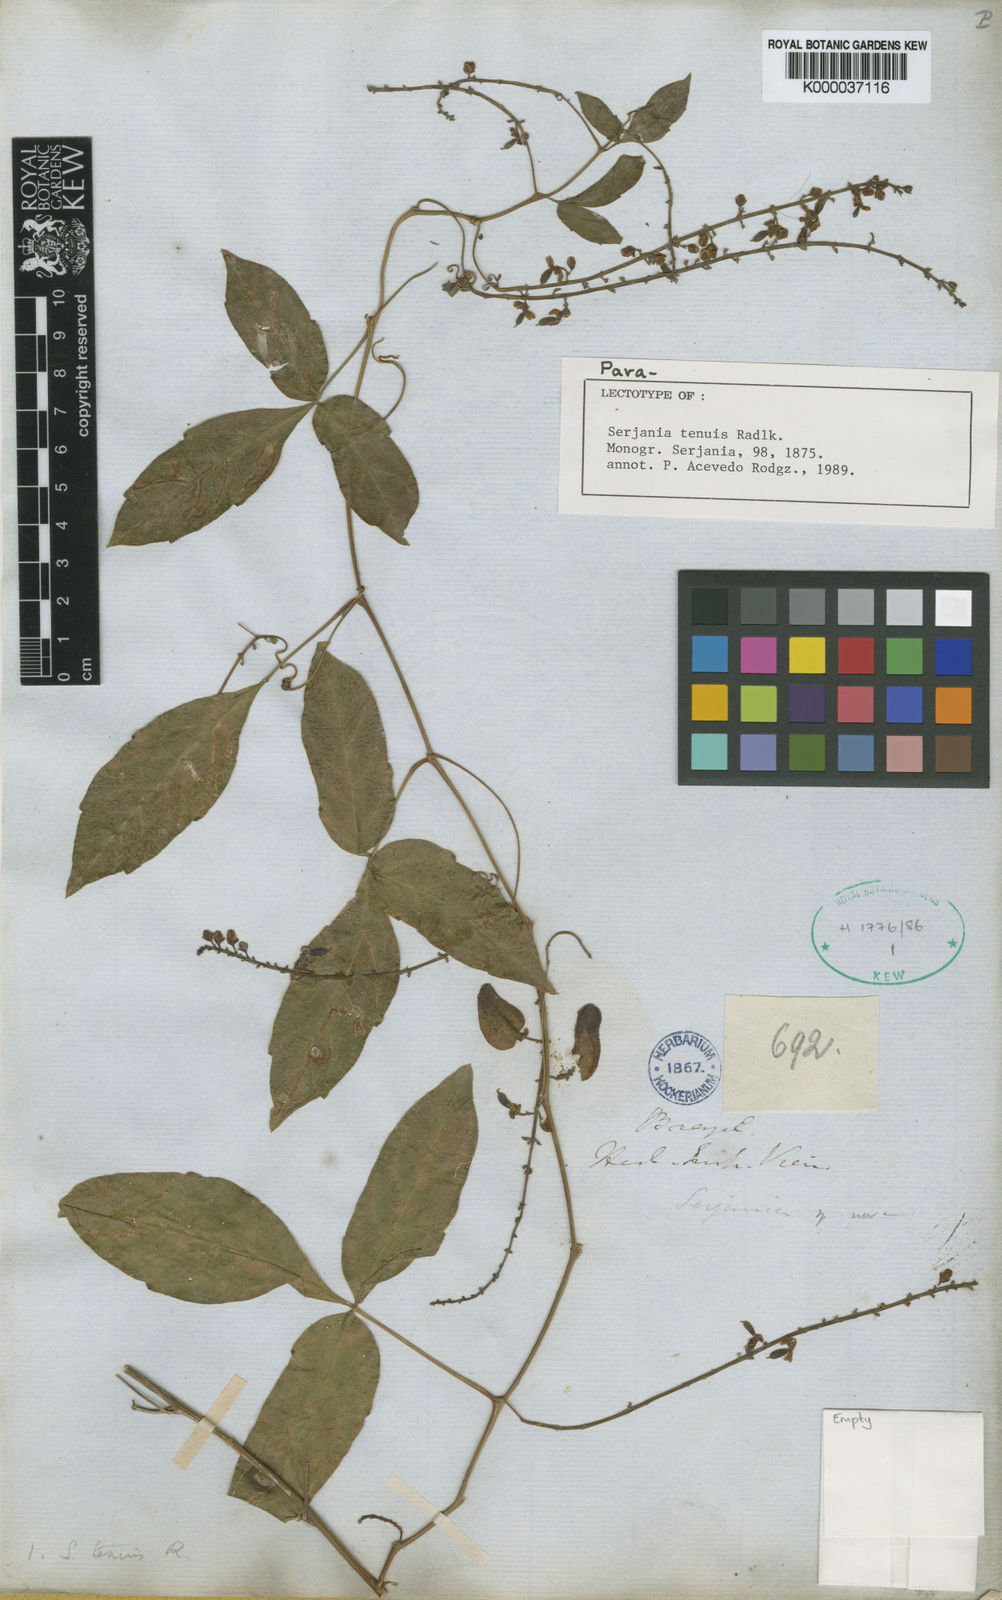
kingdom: Plantae
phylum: Tracheophyta
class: Magnoliopsida
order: Sapindales
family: Sapindaceae
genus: Serjania
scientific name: Serjania tenuis
